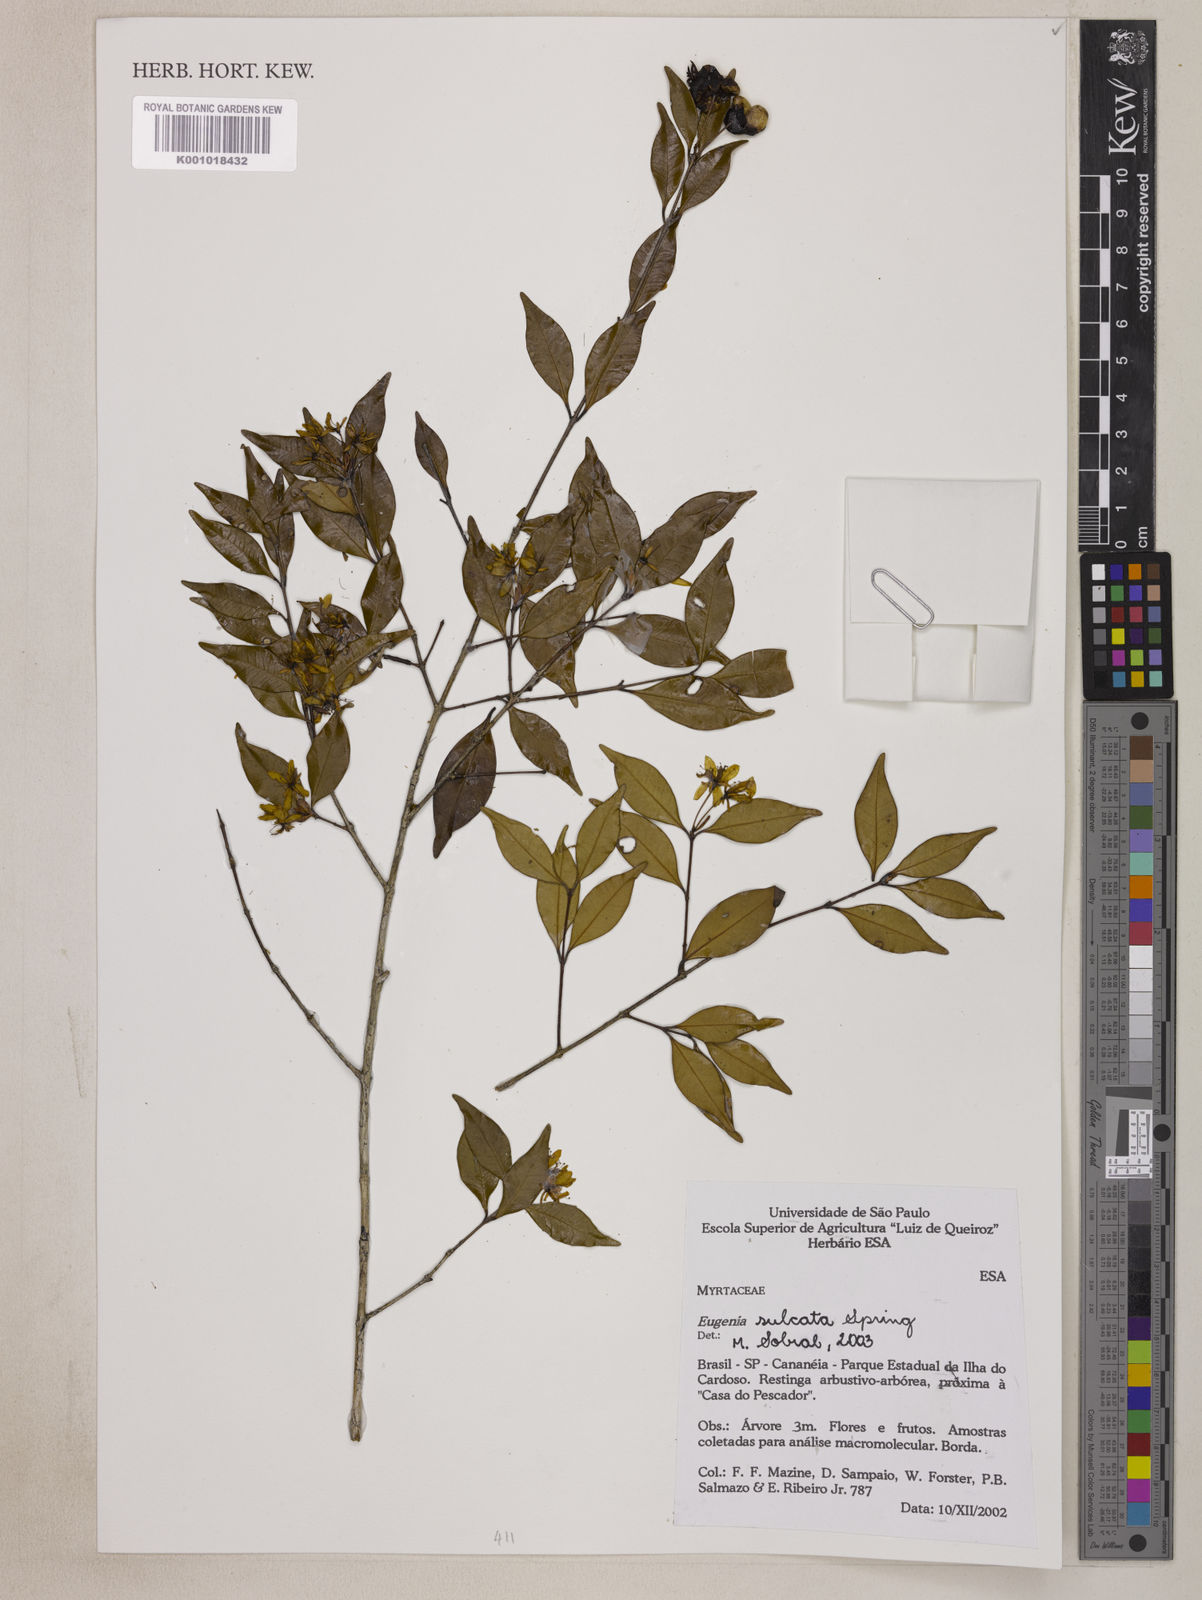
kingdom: Plantae
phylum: Tracheophyta
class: Magnoliopsida
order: Myrtales
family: Myrtaceae
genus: Eugenia
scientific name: Eugenia sulcata
